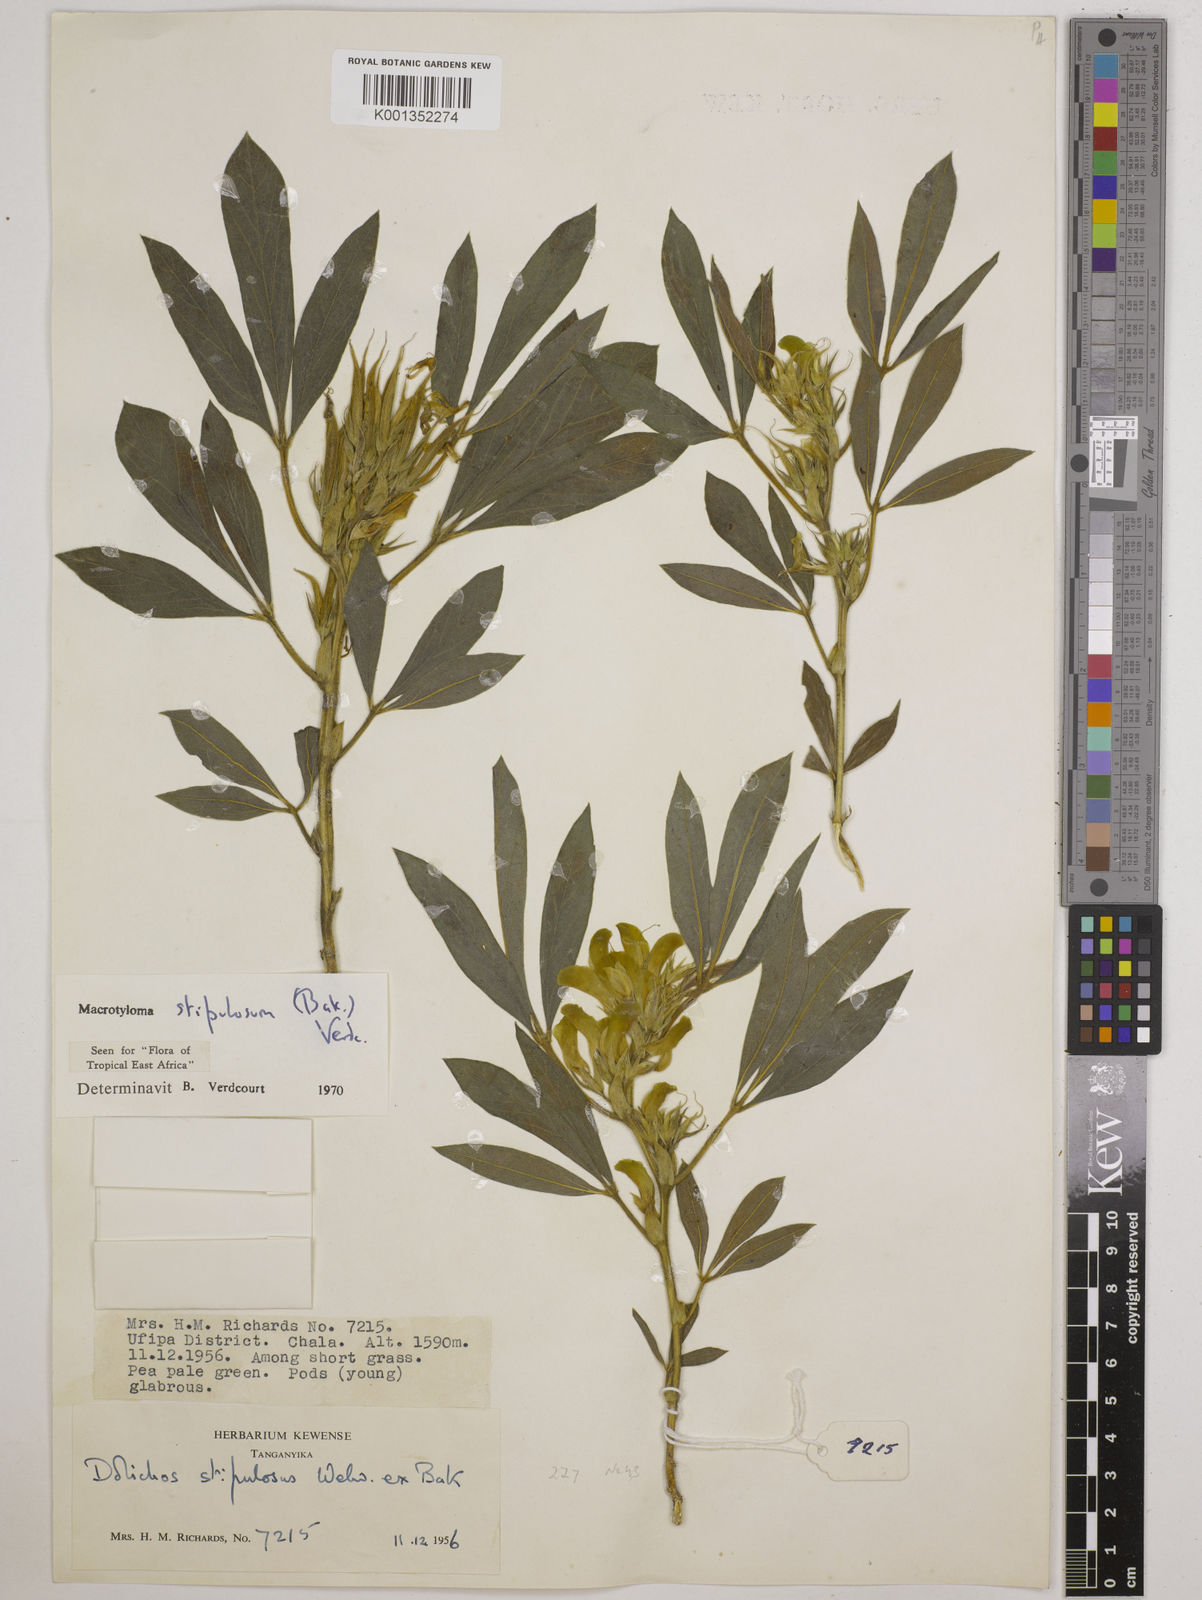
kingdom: Plantae
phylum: Tracheophyta
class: Magnoliopsida
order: Fabales
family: Fabaceae
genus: Macrotyloma
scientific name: Macrotyloma stipulosum
